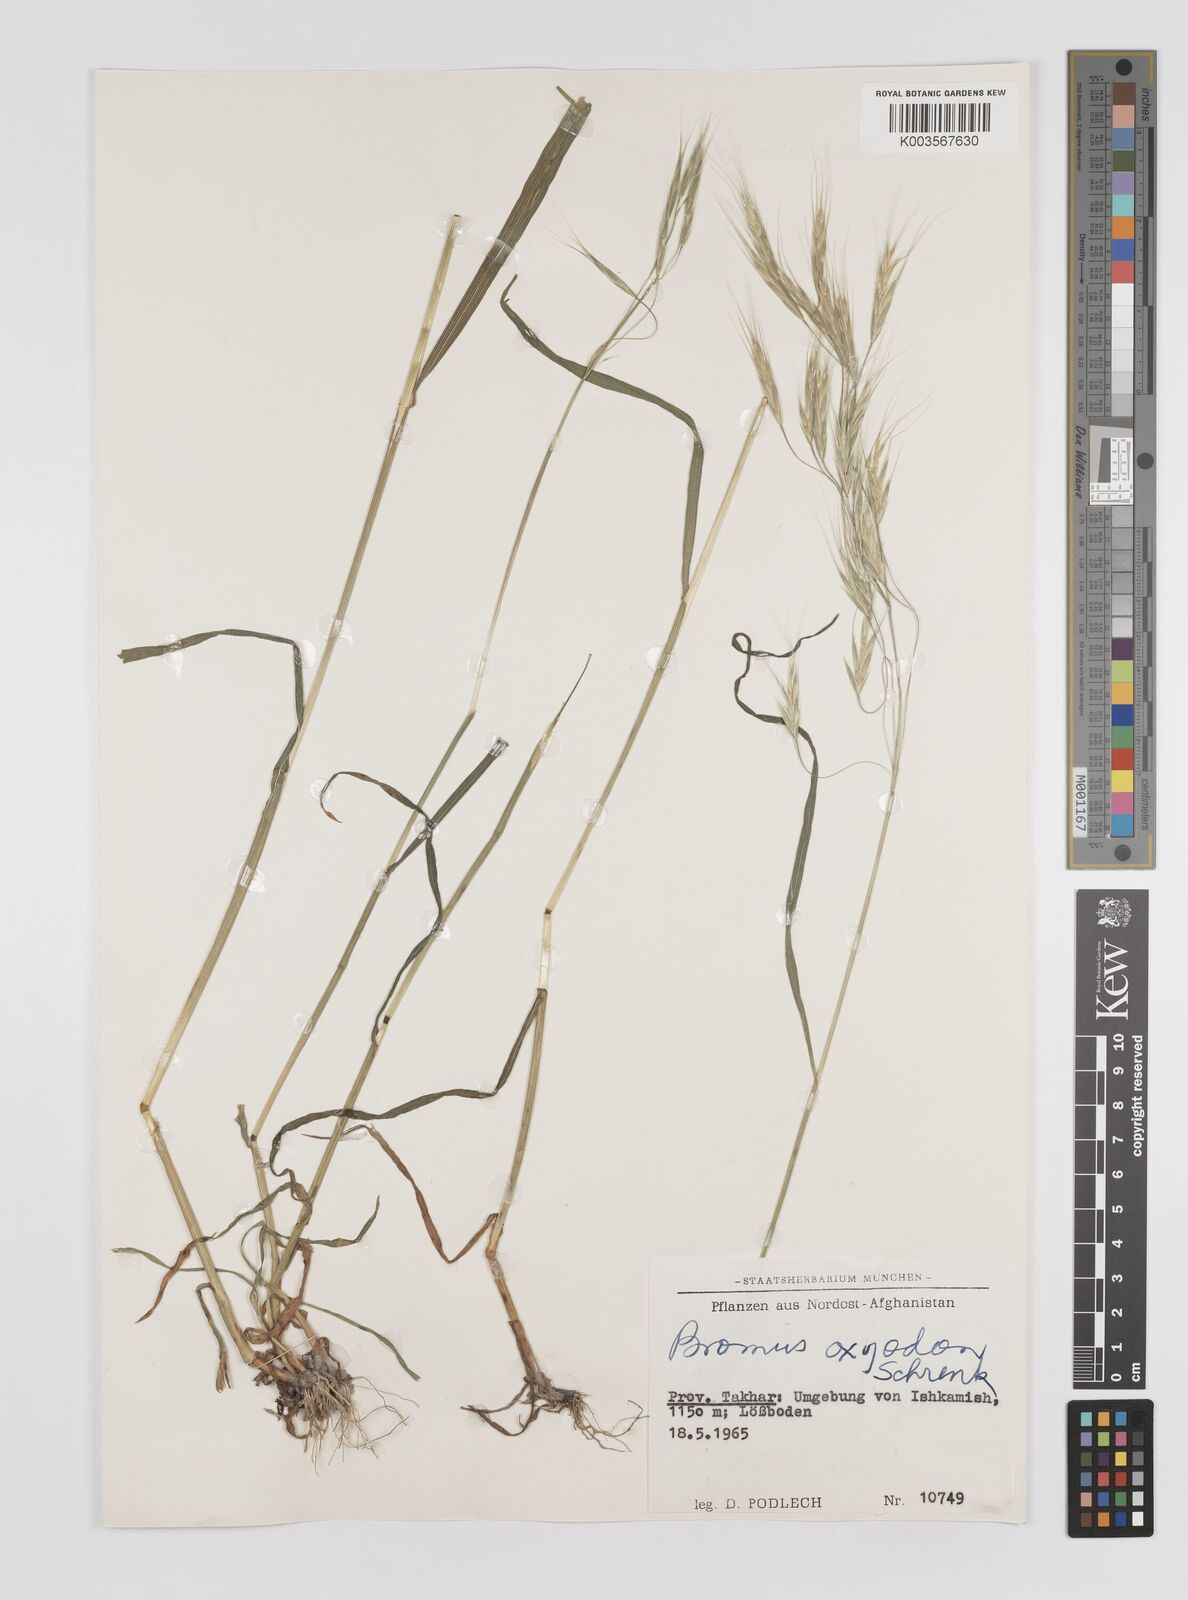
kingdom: Plantae
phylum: Tracheophyta
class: Liliopsida
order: Poales
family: Poaceae
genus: Bromus
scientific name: Bromus oxyodon
